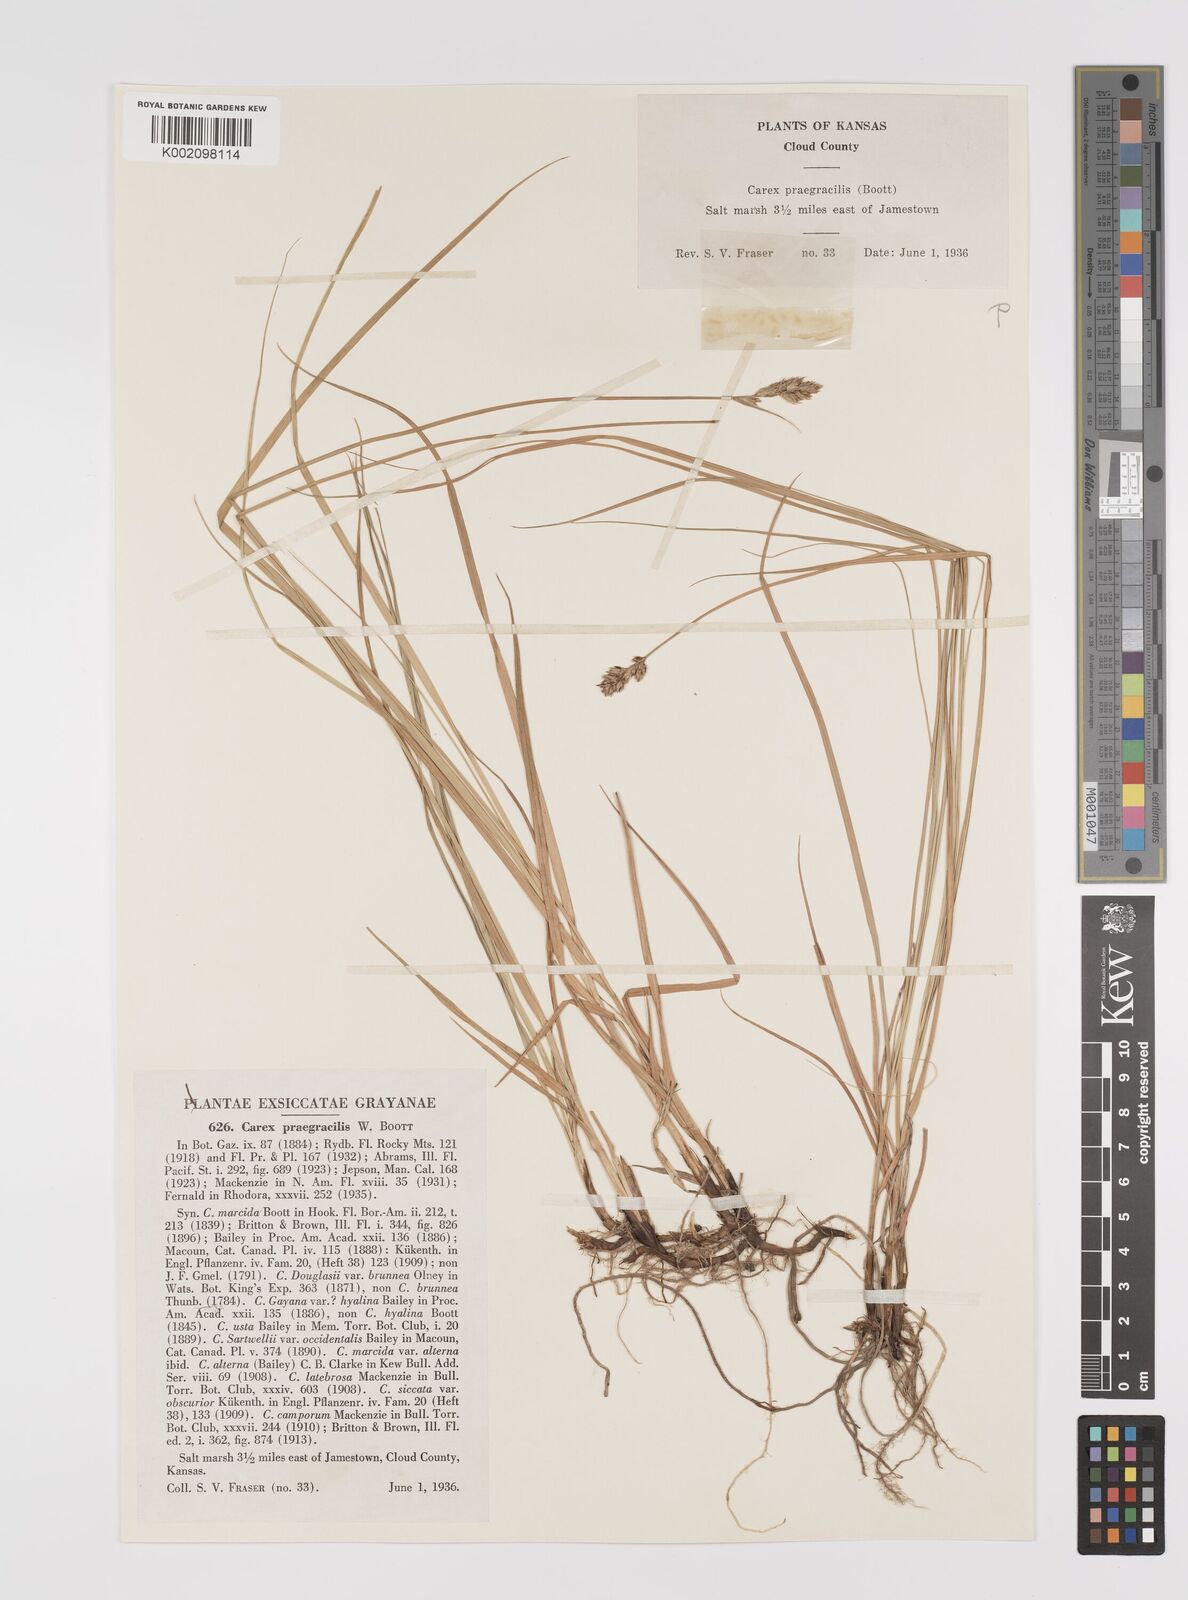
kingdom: Plantae
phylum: Tracheophyta
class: Liliopsida
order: Poales
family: Cyperaceae
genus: Carex
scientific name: Carex praegracilis
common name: Black creeper sedge
